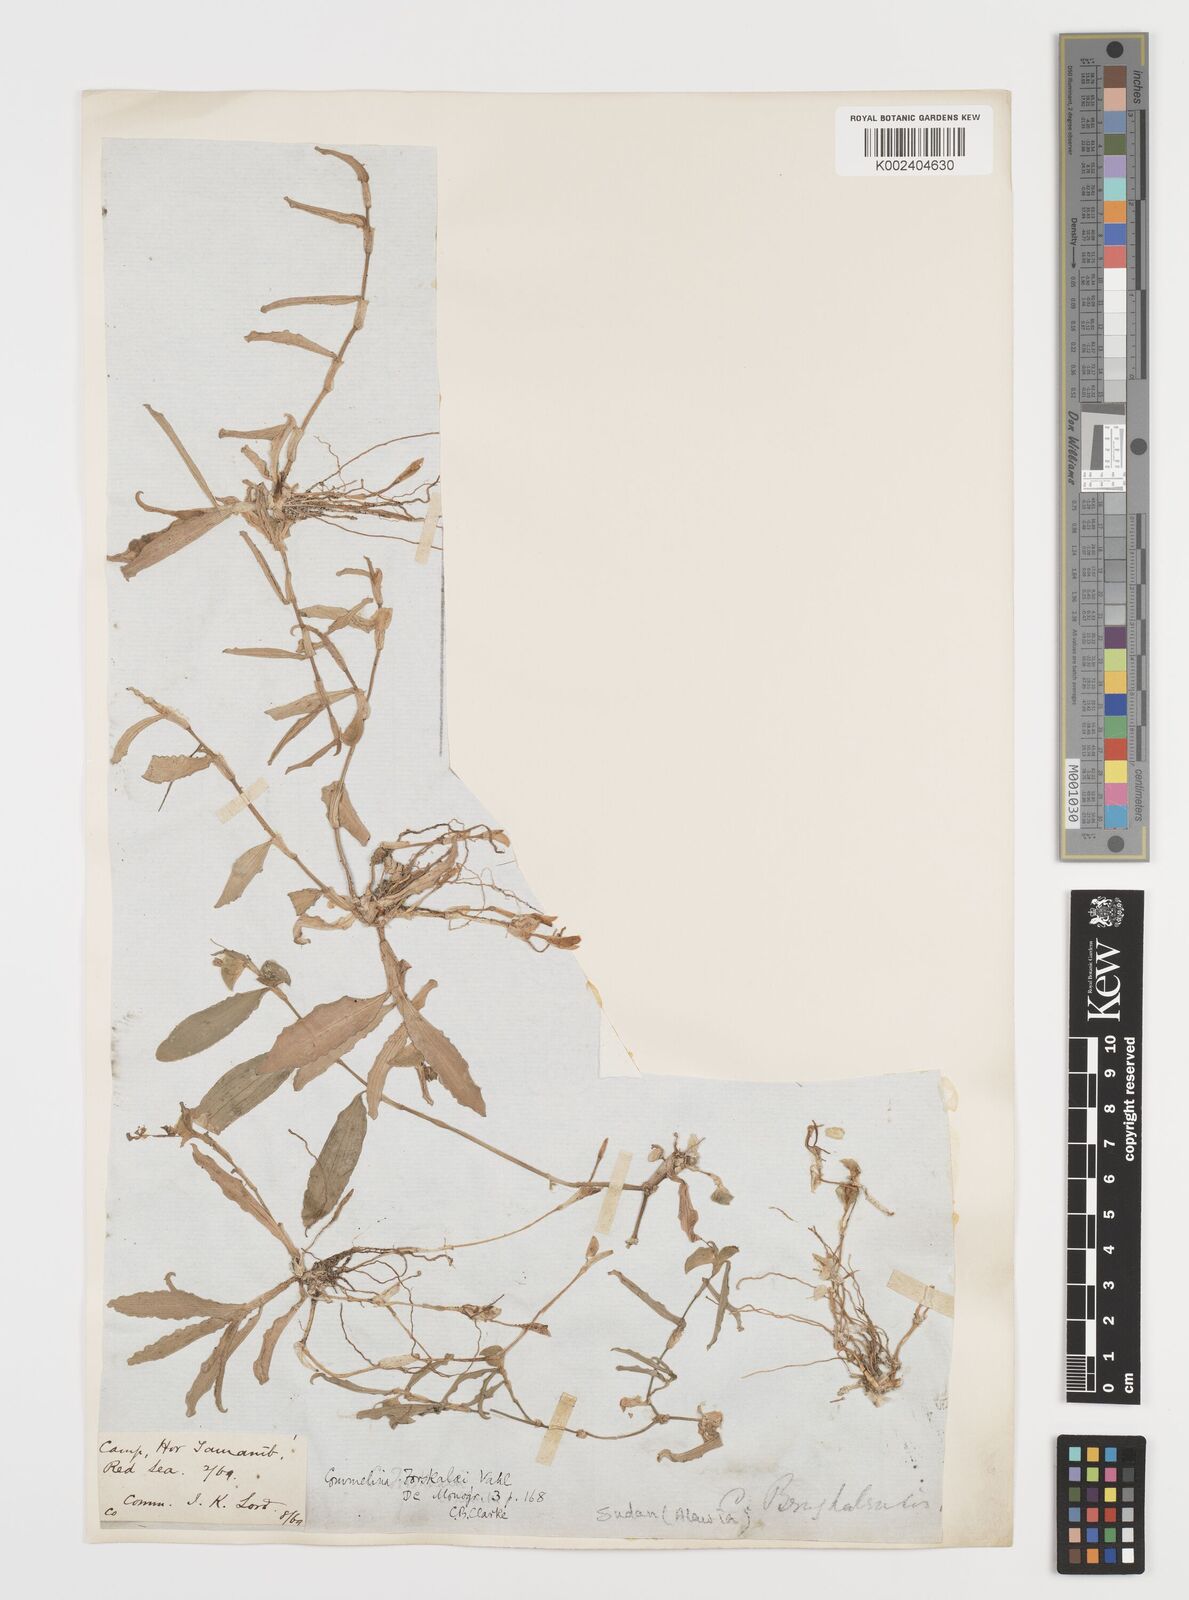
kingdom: Plantae
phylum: Tracheophyta
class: Liliopsida
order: Commelinales
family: Commelinaceae
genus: Commelina
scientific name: Commelina forskaolii
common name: Rat's ear
